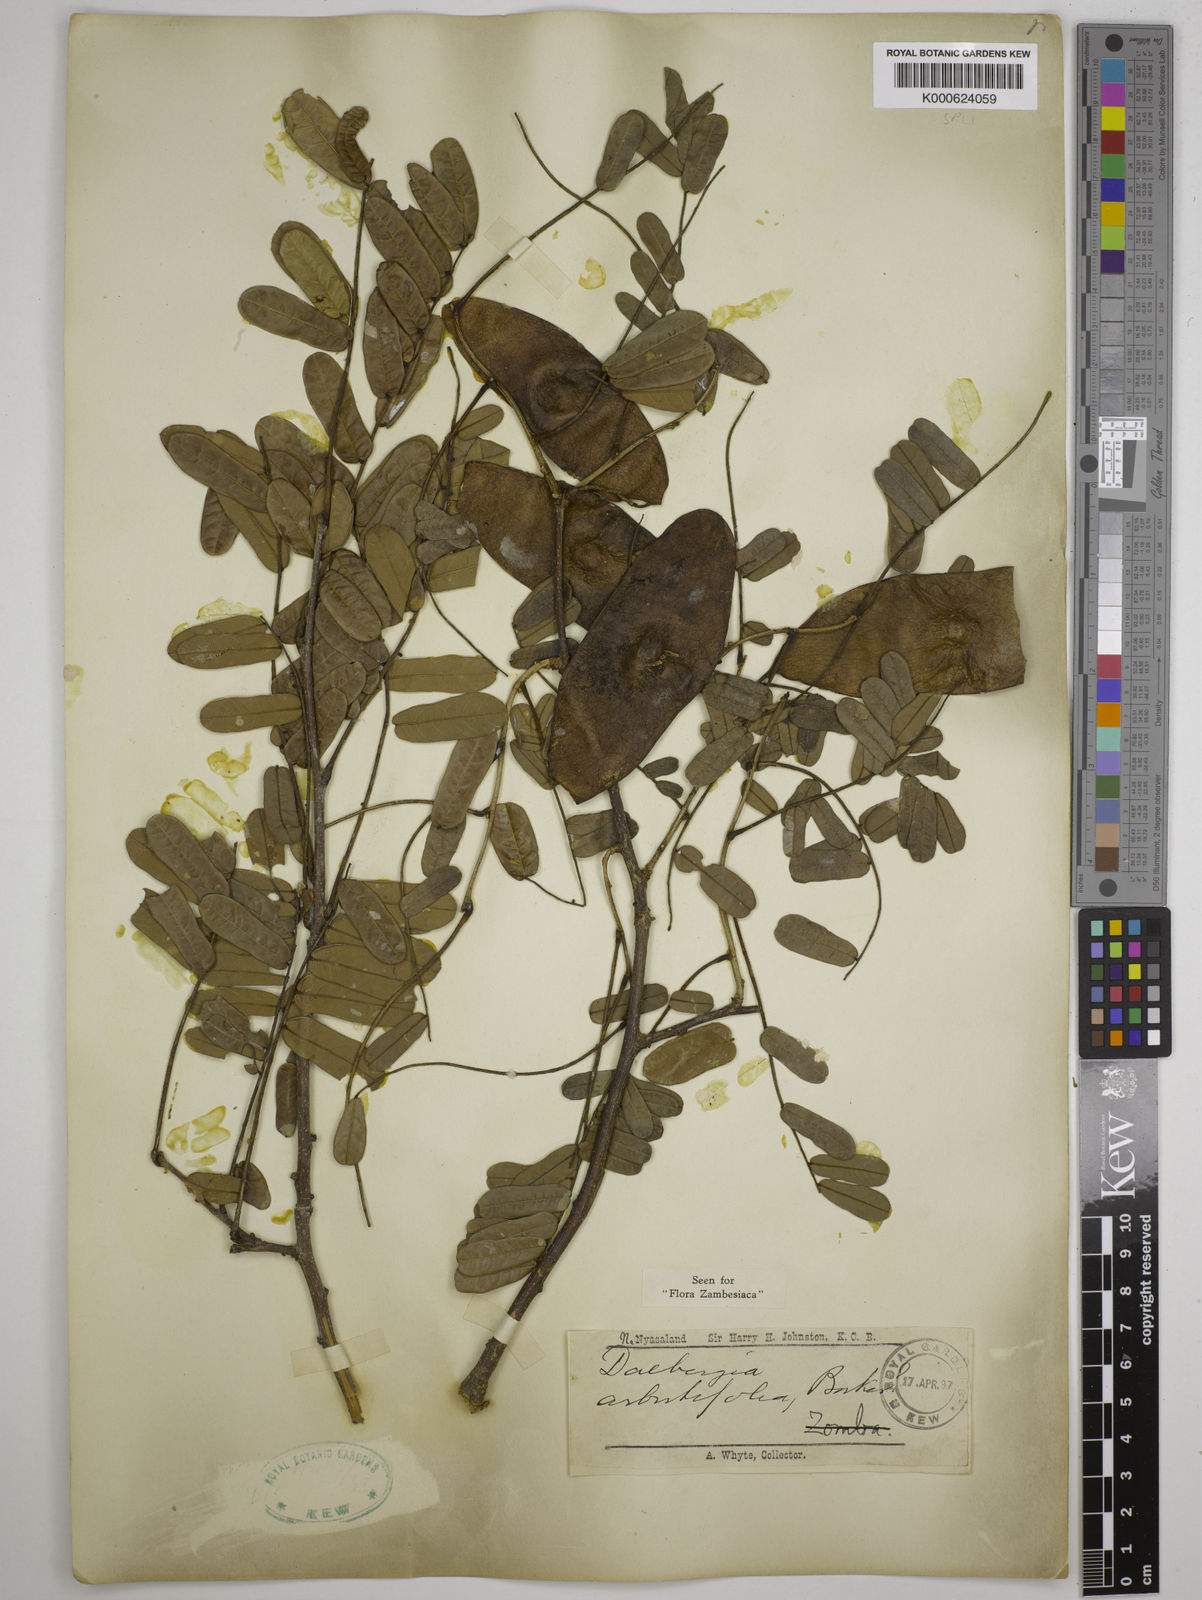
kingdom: Plantae
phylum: Tracheophyta
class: Magnoliopsida
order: Fabales
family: Fabaceae
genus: Dalbergia
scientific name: Dalbergia arbutifolia
